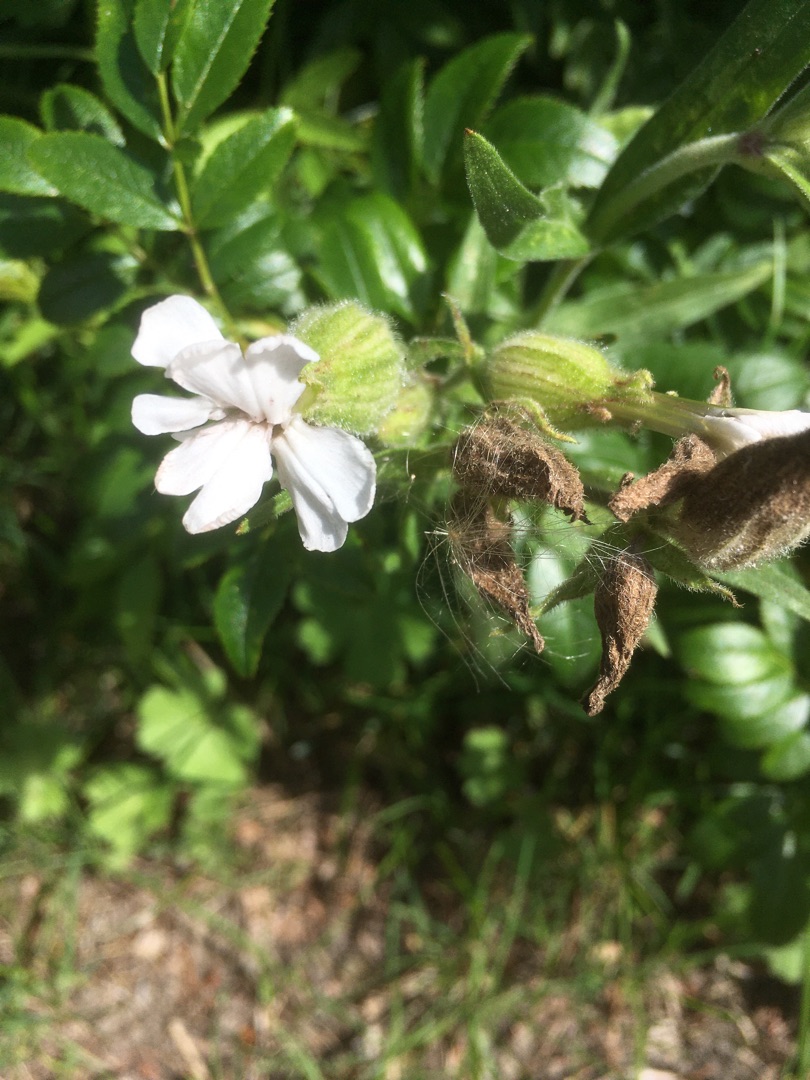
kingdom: Plantae
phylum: Tracheophyta
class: Magnoliopsida
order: Caryophyllales
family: Caryophyllaceae
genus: Silene
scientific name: Silene latifolia
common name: Aftenpragtstjerne
